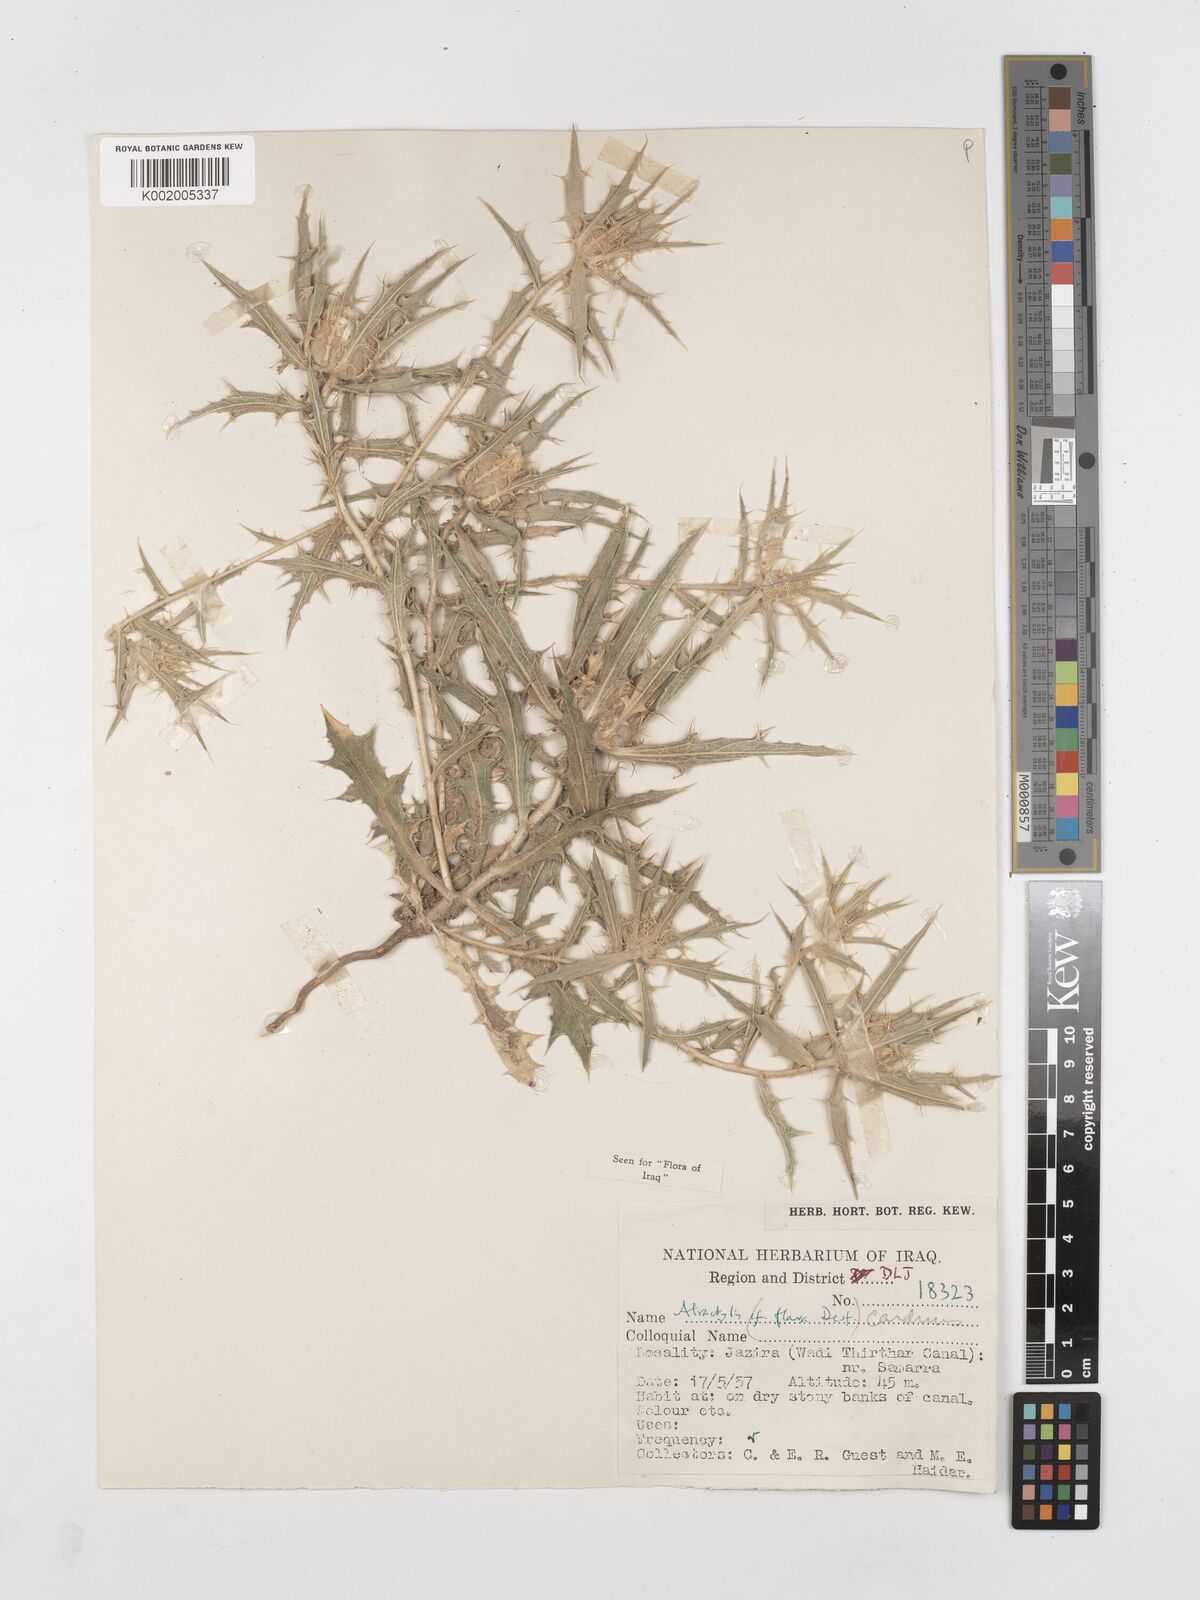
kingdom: Plantae
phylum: Tracheophyta
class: Magnoliopsida
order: Asterales
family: Asteraceae
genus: Atractylis
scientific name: Atractylis carduus
